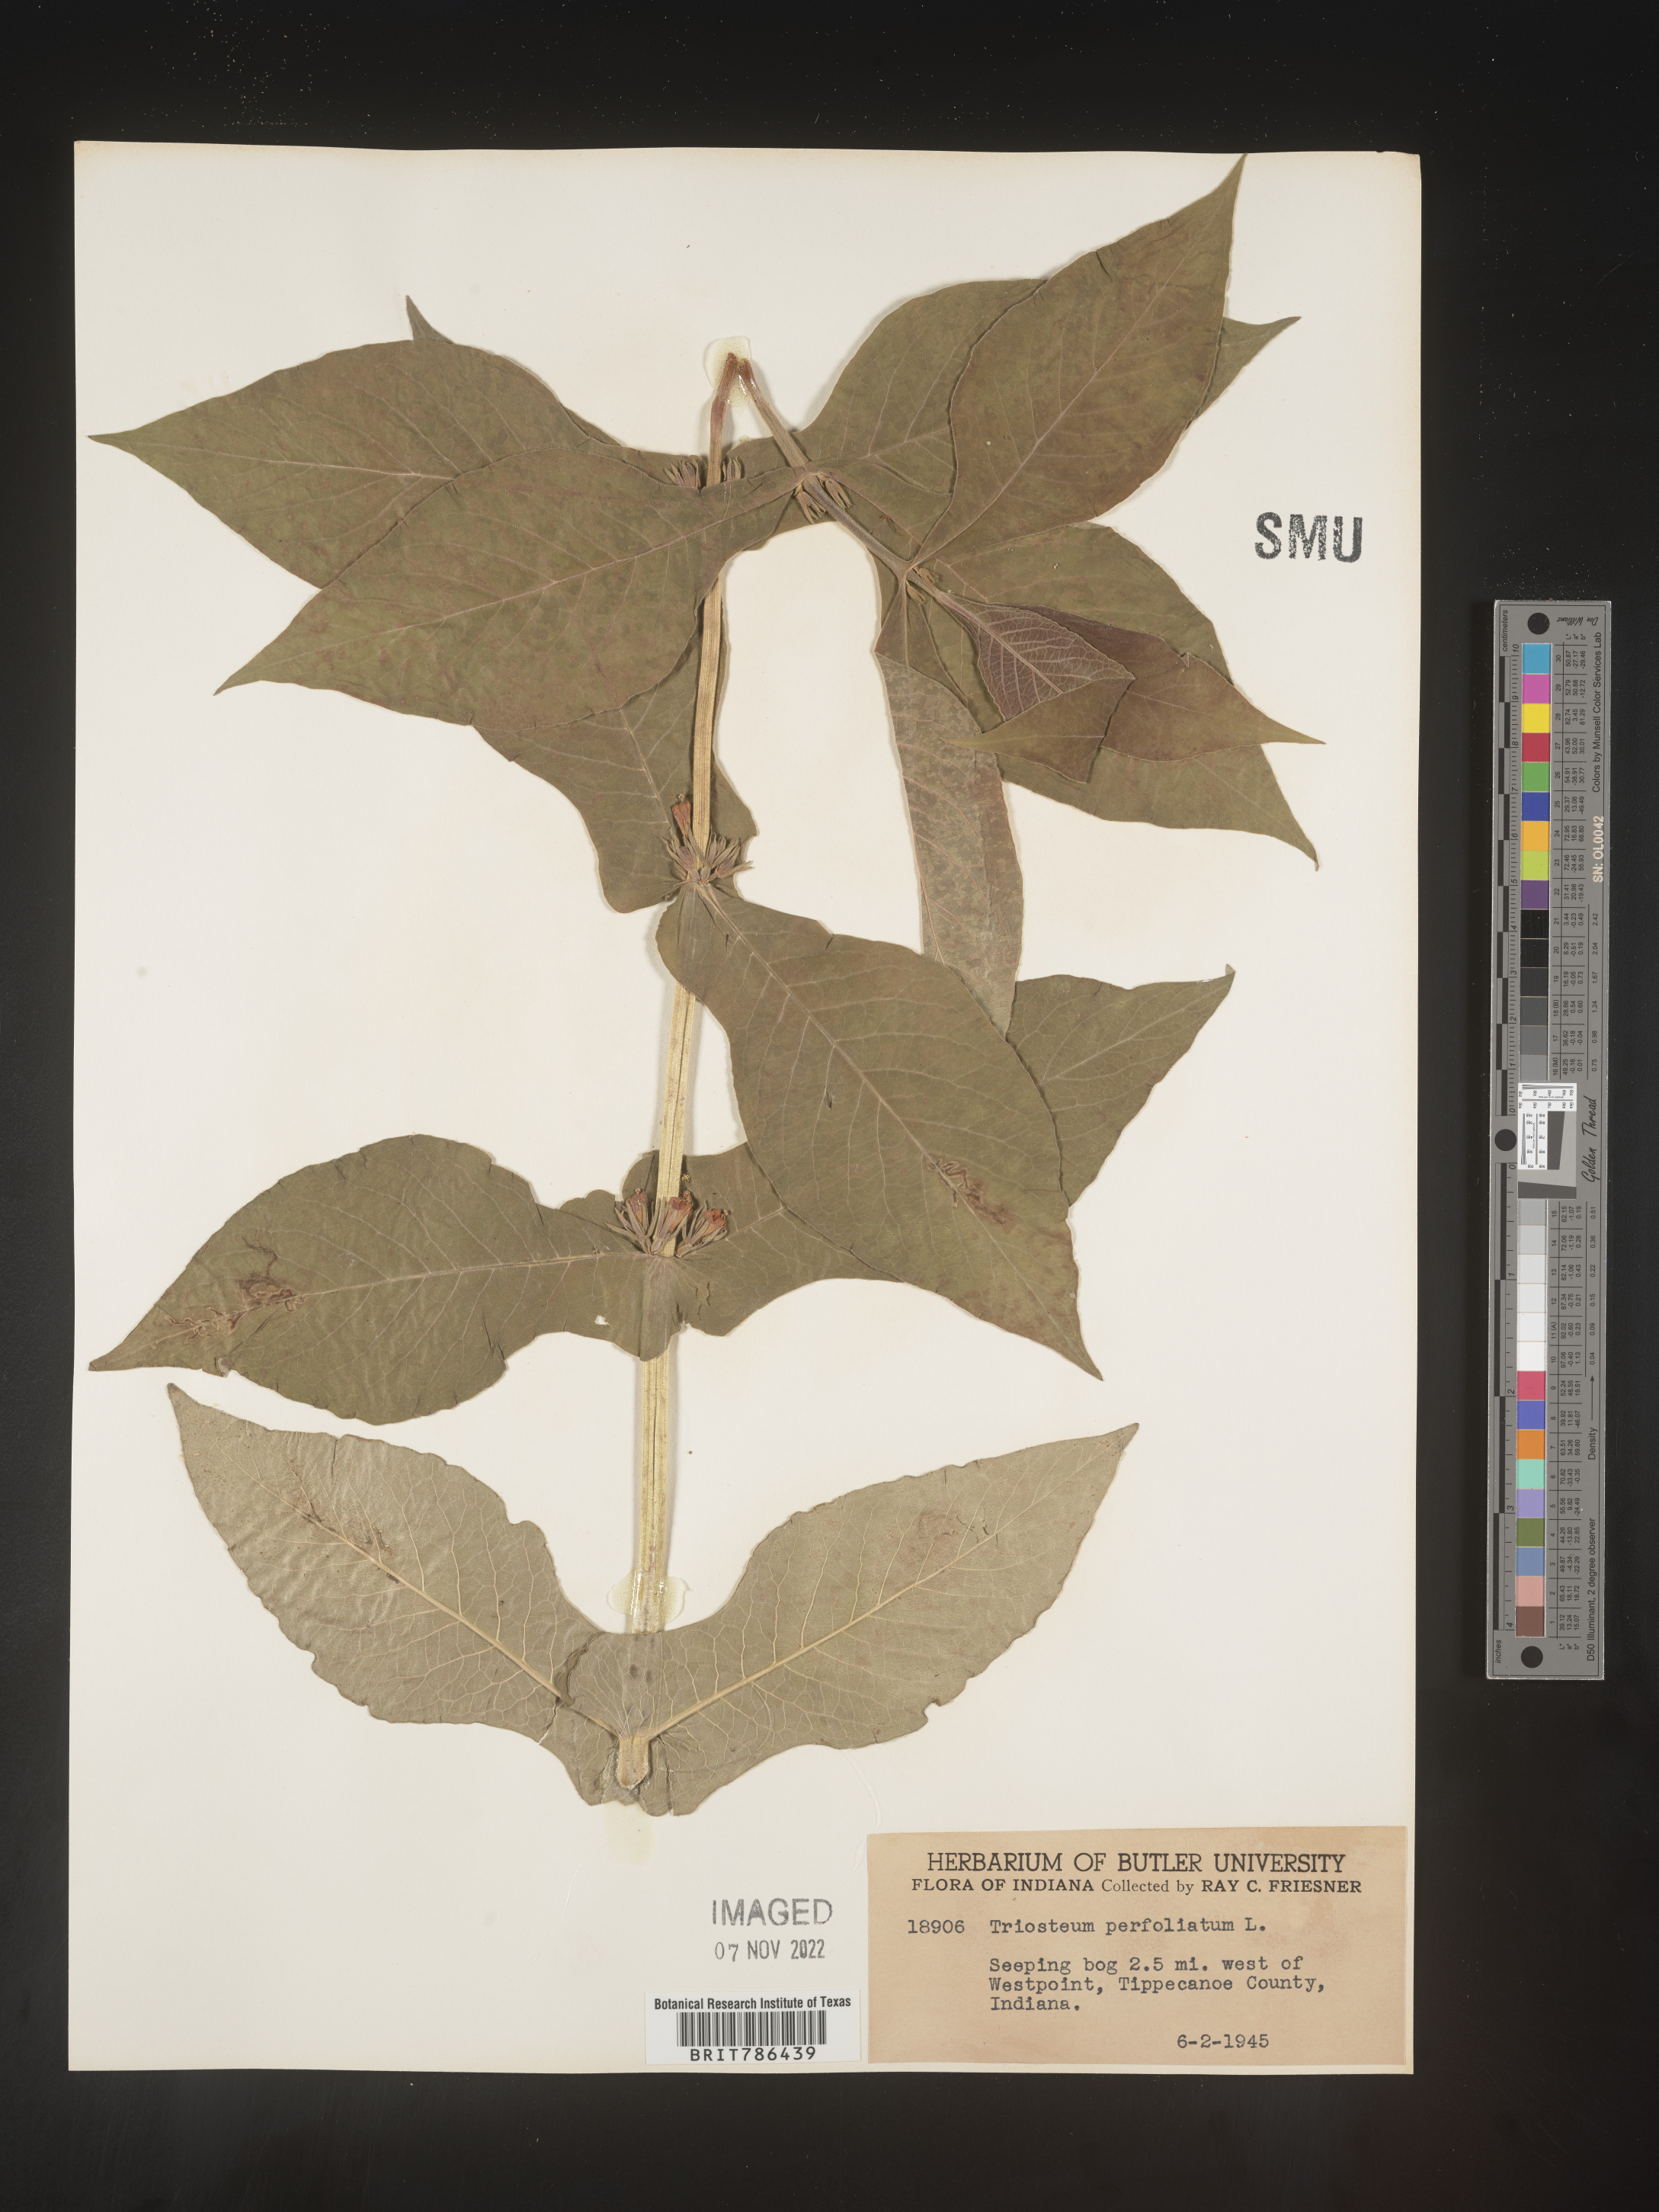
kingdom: Plantae
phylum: Tracheophyta
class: Magnoliopsida
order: Dipsacales
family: Caprifoliaceae
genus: Triosteum
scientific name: Triosteum perfoliatum
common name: Common horse-gentian
